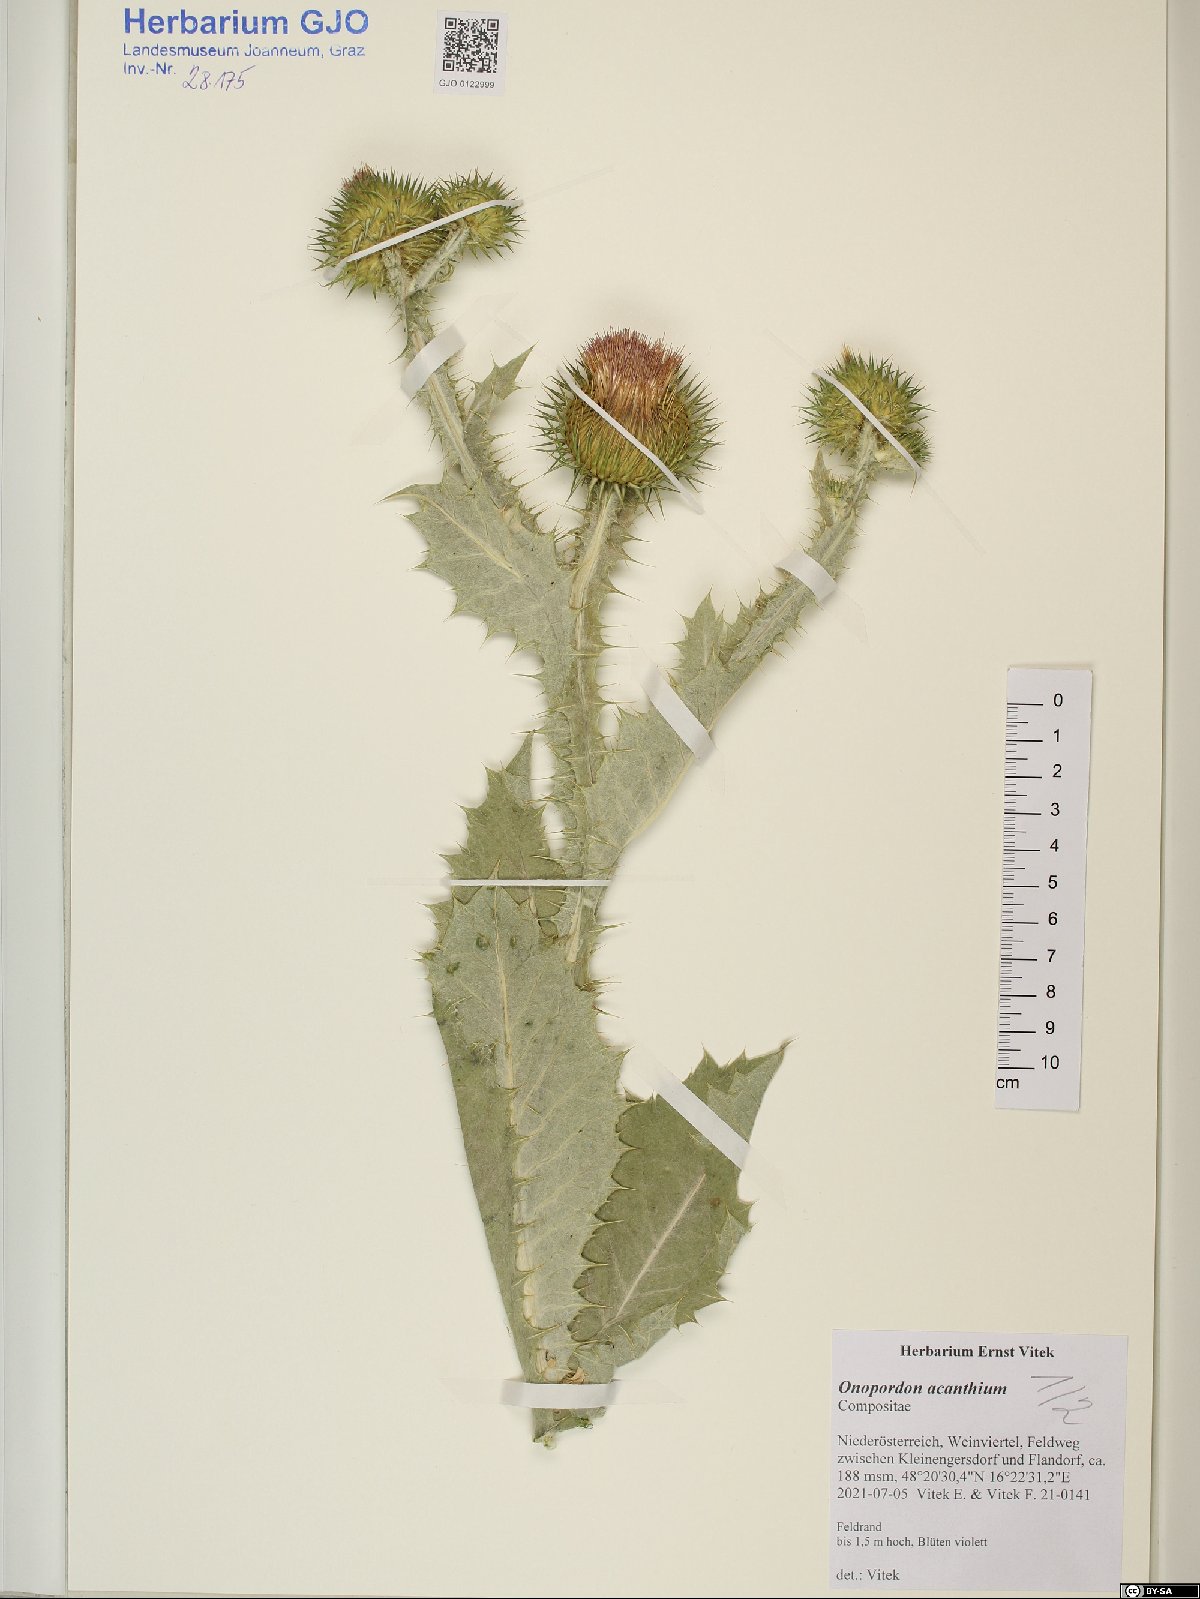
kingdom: Plantae
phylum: Tracheophyta
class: Magnoliopsida
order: Asterales
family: Asteraceae
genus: Onopordum
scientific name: Onopordum acanthium
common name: Scotch thistle
